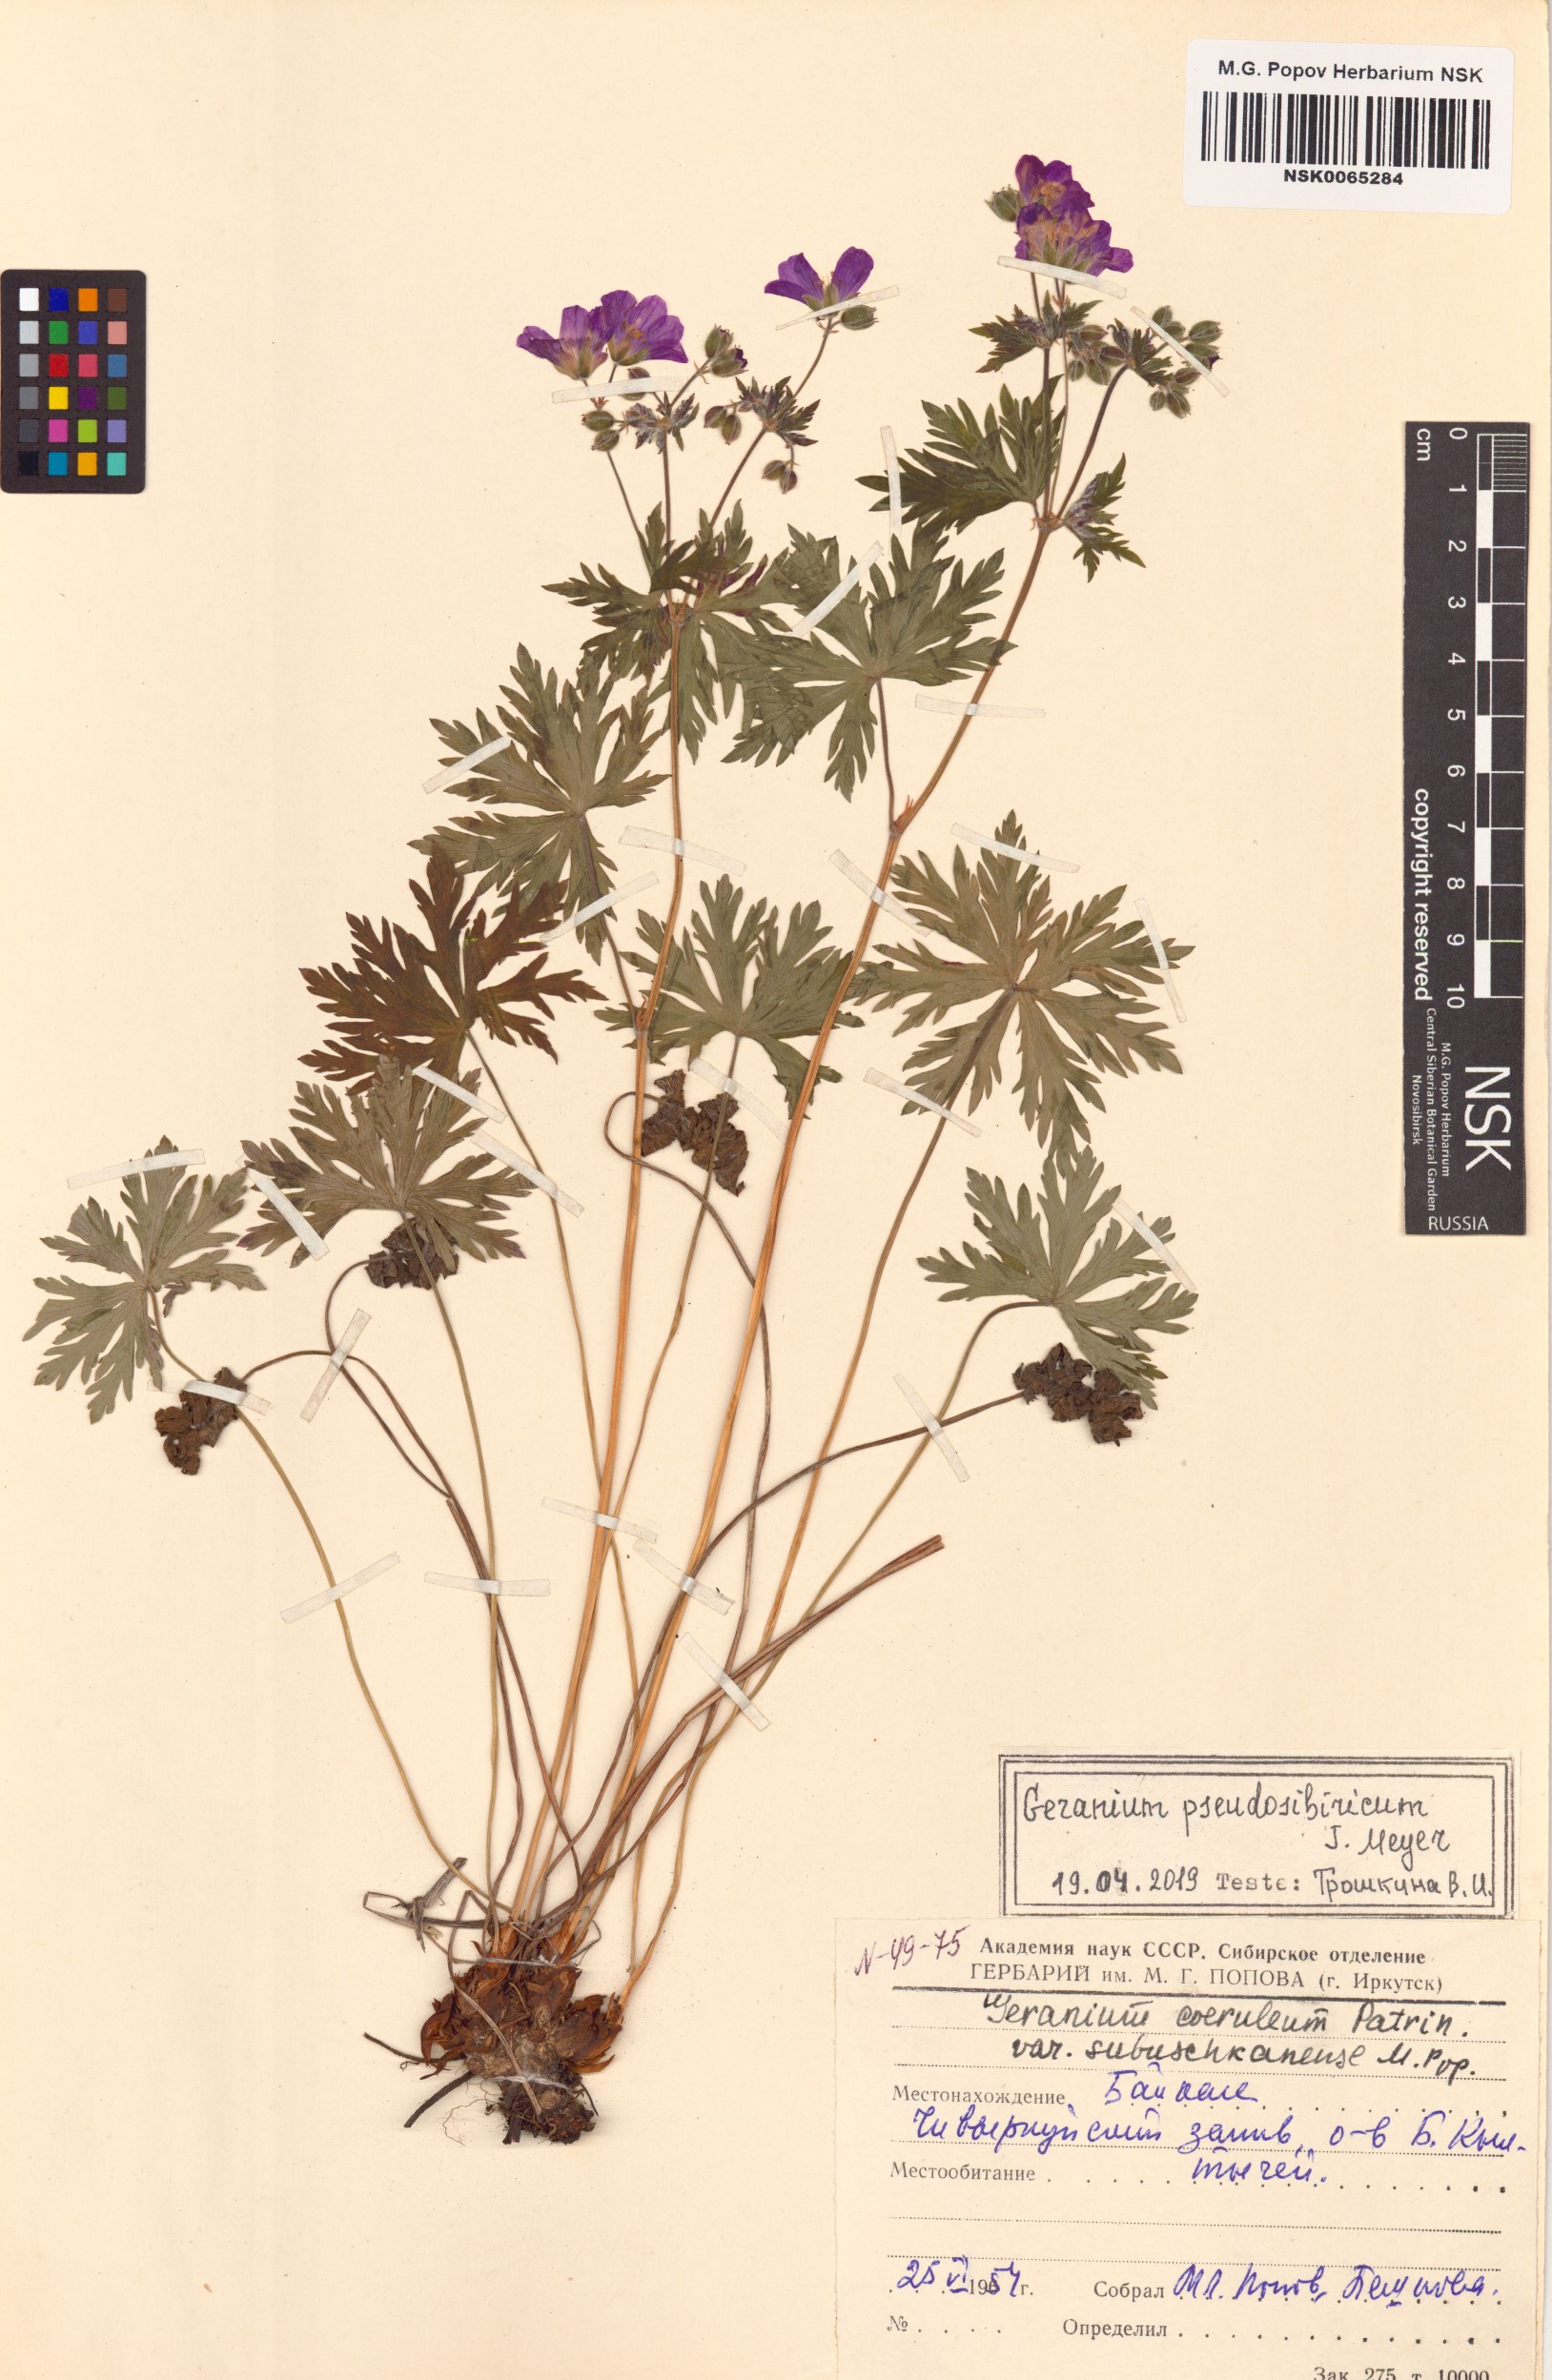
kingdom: Plantae
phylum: Tracheophyta
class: Magnoliopsida
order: Geraniales
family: Geraniaceae
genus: Geranium
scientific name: Geranium pseudosibiricum
